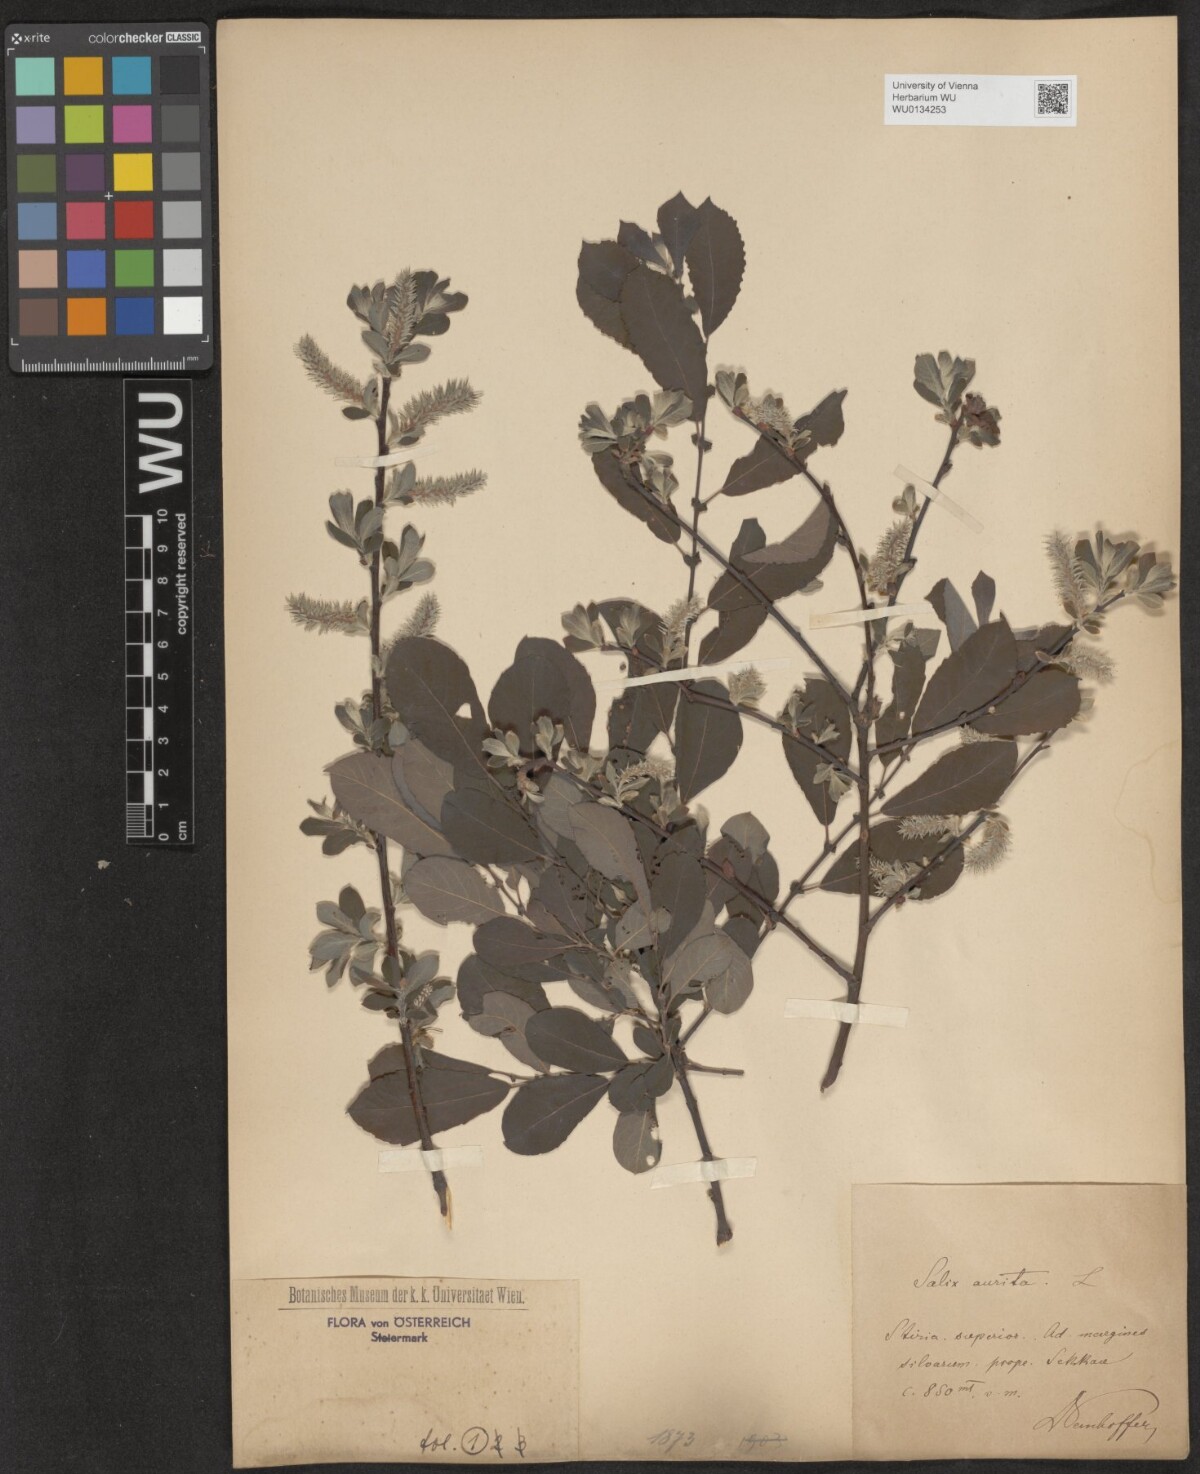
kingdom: Plantae
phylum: Tracheophyta
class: Magnoliopsida
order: Malpighiales
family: Salicaceae
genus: Salix
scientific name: Salix aurita
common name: Eared willow
